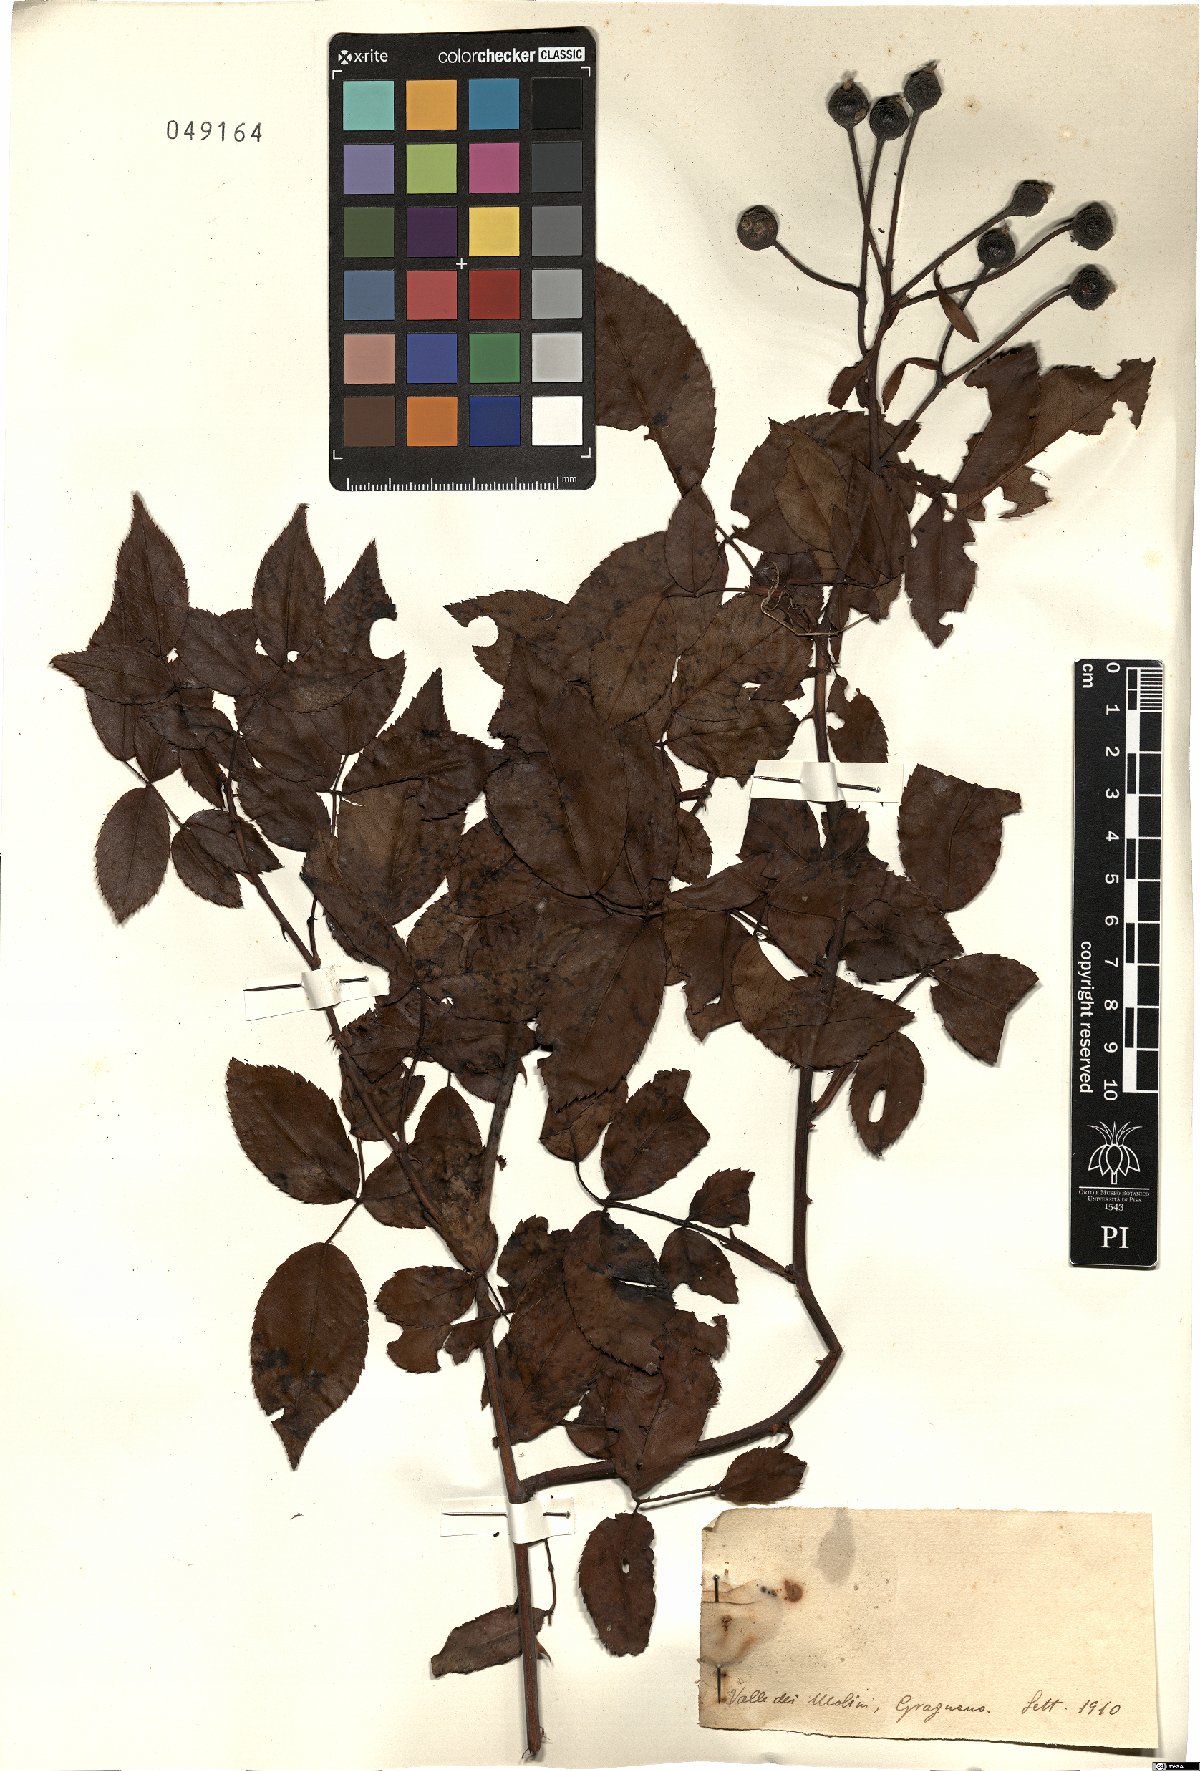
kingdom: Plantae
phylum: Tracheophyta
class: Magnoliopsida
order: Rosales
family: Rosaceae
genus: Rosa
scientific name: Rosa
